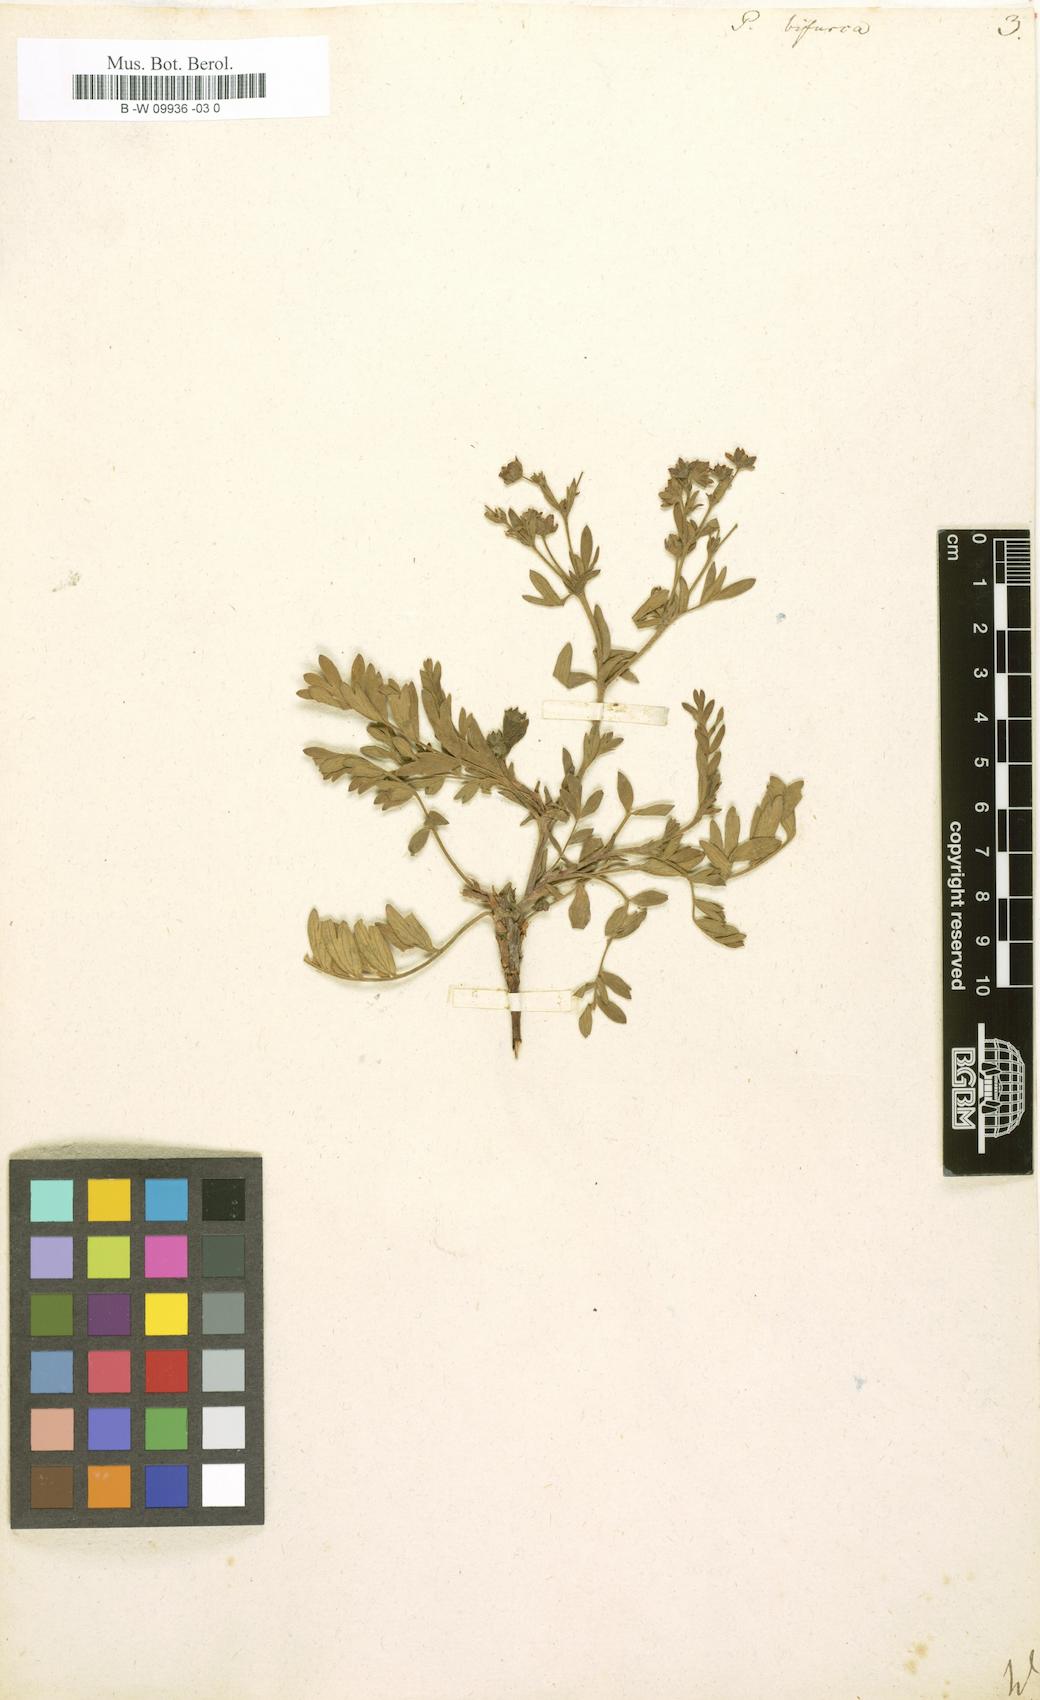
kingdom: Plantae
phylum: Tracheophyta
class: Magnoliopsida
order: Rosales
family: Rosaceae
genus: Sibbaldianthe
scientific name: Sibbaldianthe bifurca
